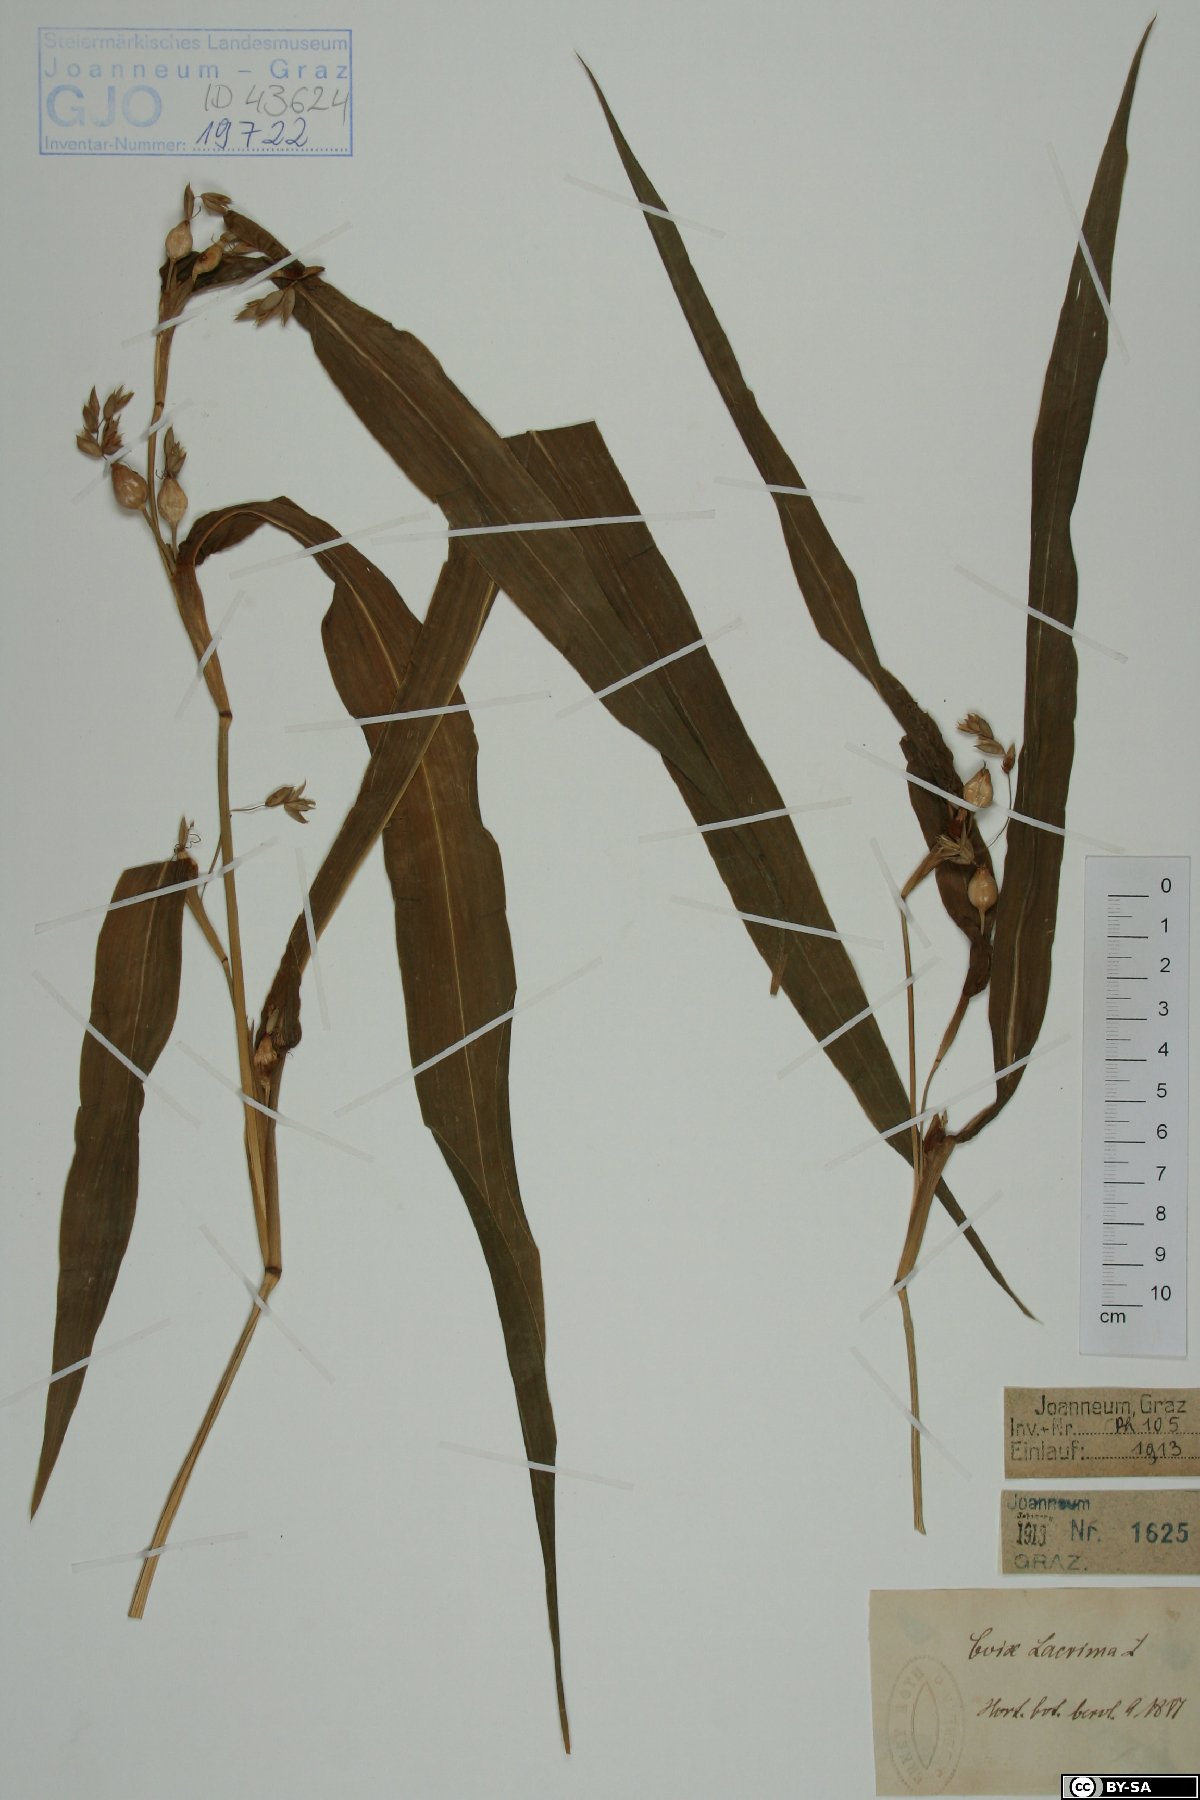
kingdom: Plantae
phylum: Tracheophyta
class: Liliopsida
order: Poales
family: Poaceae
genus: Coix
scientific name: Coix lacryma-jobi
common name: Job's tears
